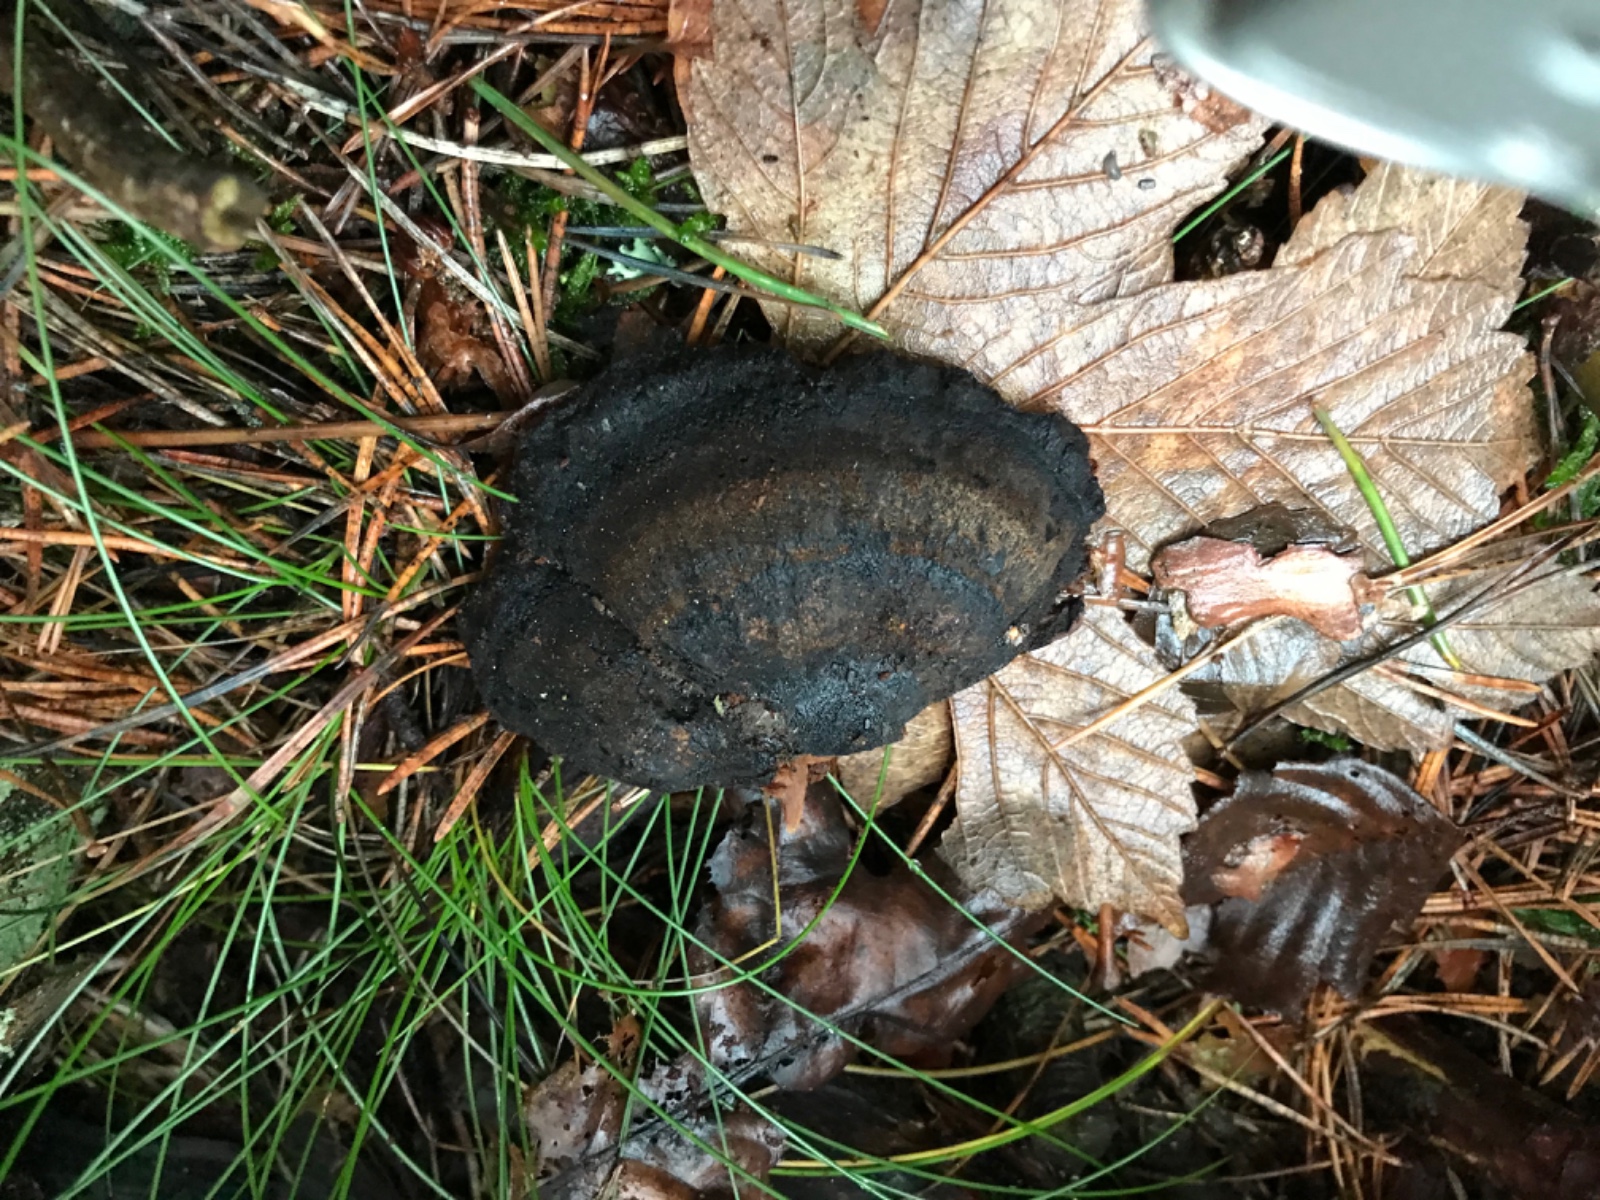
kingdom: Fungi
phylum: Basidiomycota
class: Agaricomycetes
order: Polyporales
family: Ischnodermataceae
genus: Ischnoderma
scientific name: Ischnoderma benzoinum
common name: gran-tjæreporesvamp
